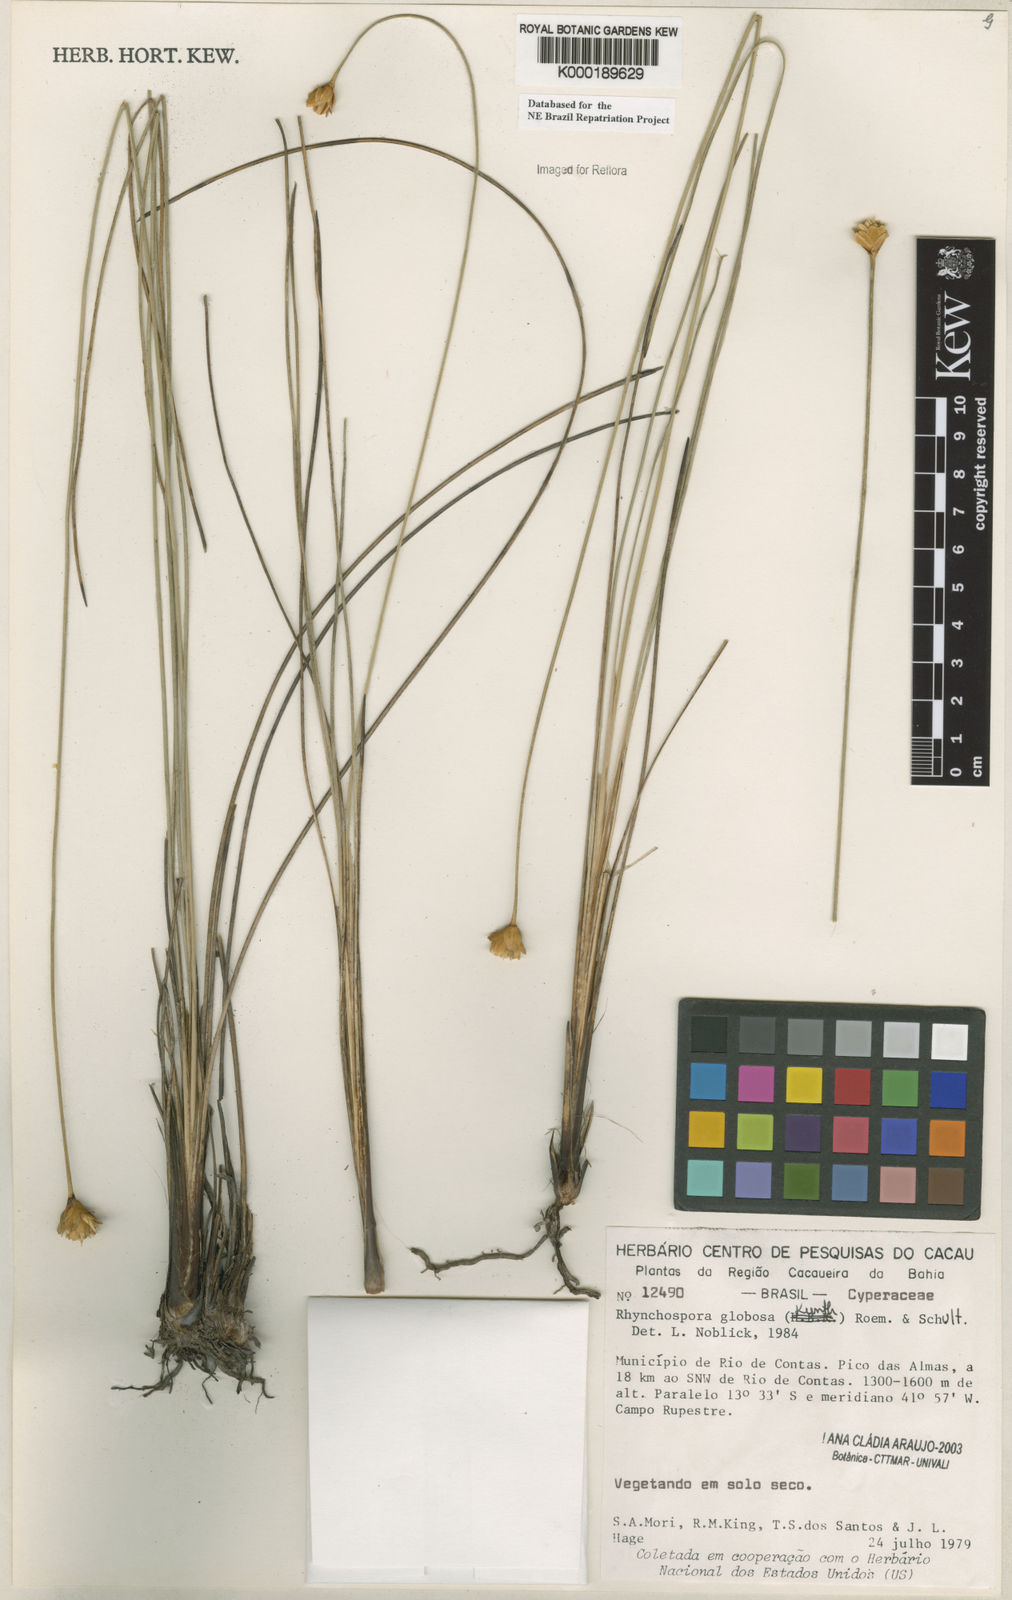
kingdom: Plantae
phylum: Tracheophyta
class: Liliopsida
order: Poales
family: Cyperaceae
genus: Rhynchospora
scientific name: Rhynchospora globosa
